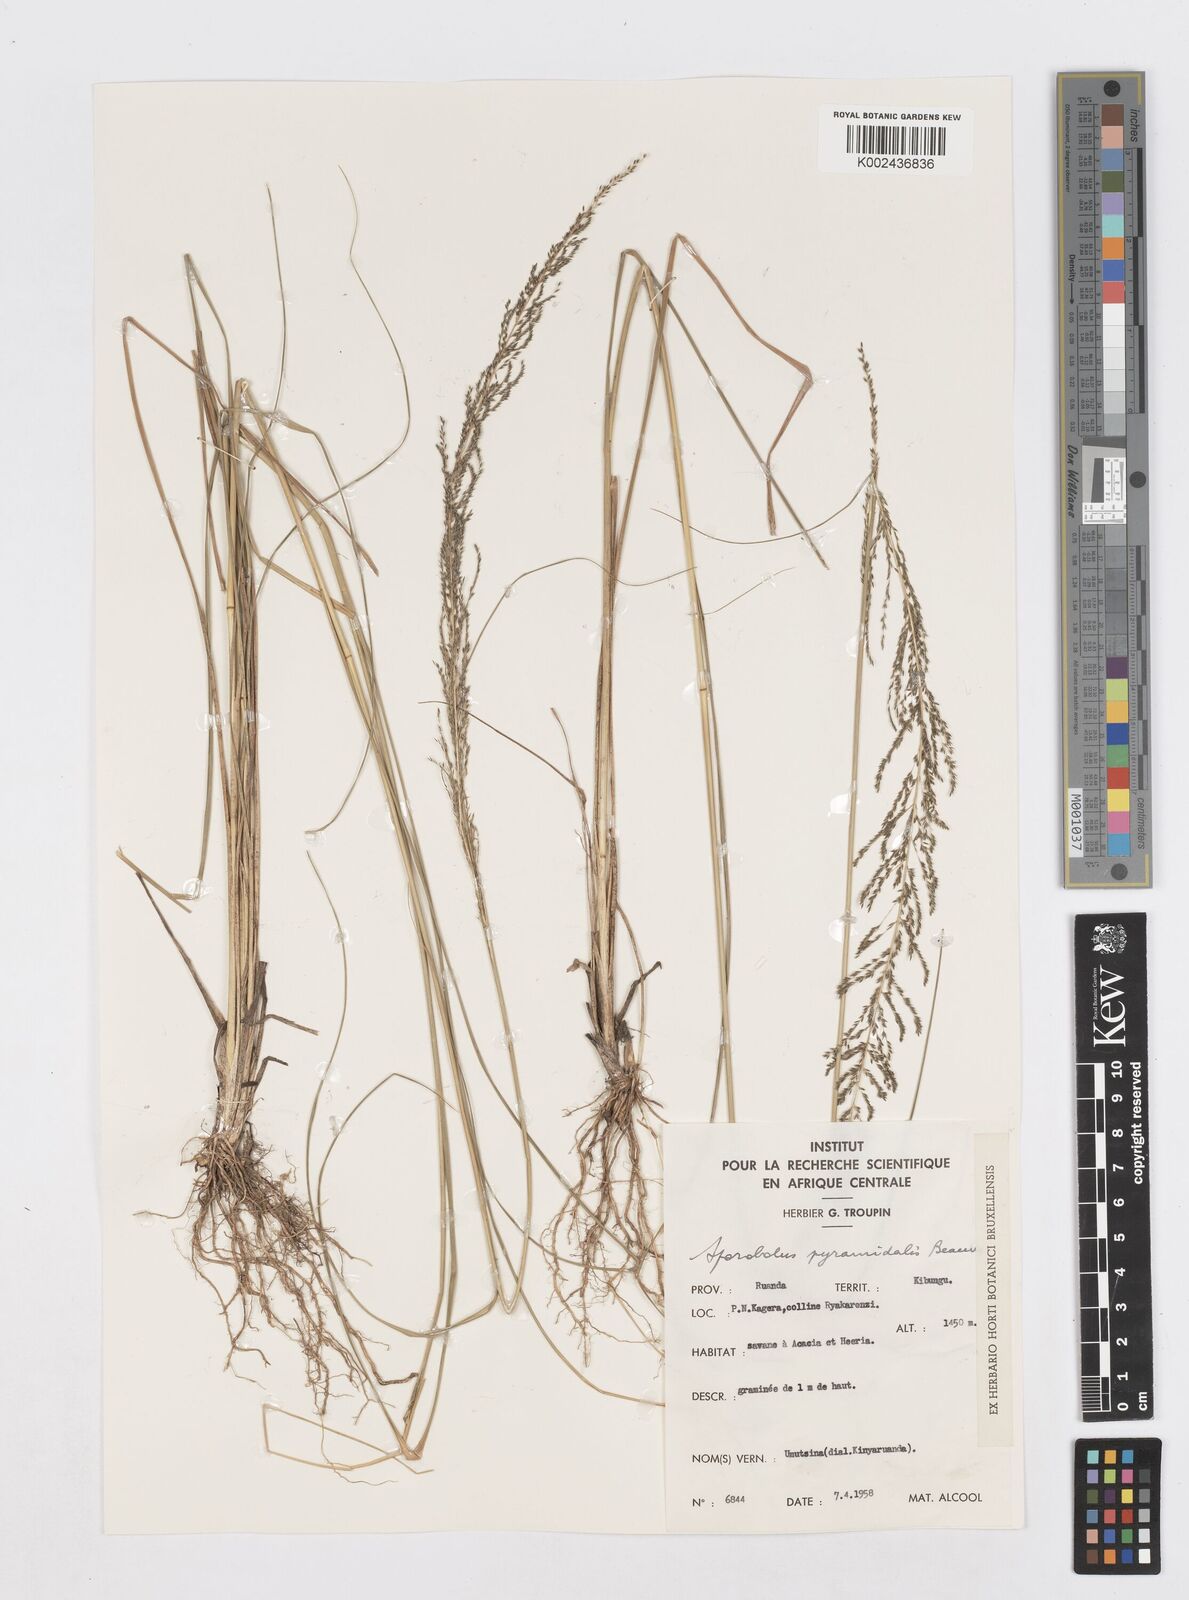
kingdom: Plantae
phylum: Tracheophyta
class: Liliopsida
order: Poales
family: Poaceae
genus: Sporobolus
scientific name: Sporobolus pyramidalis
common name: West indian dropseed
